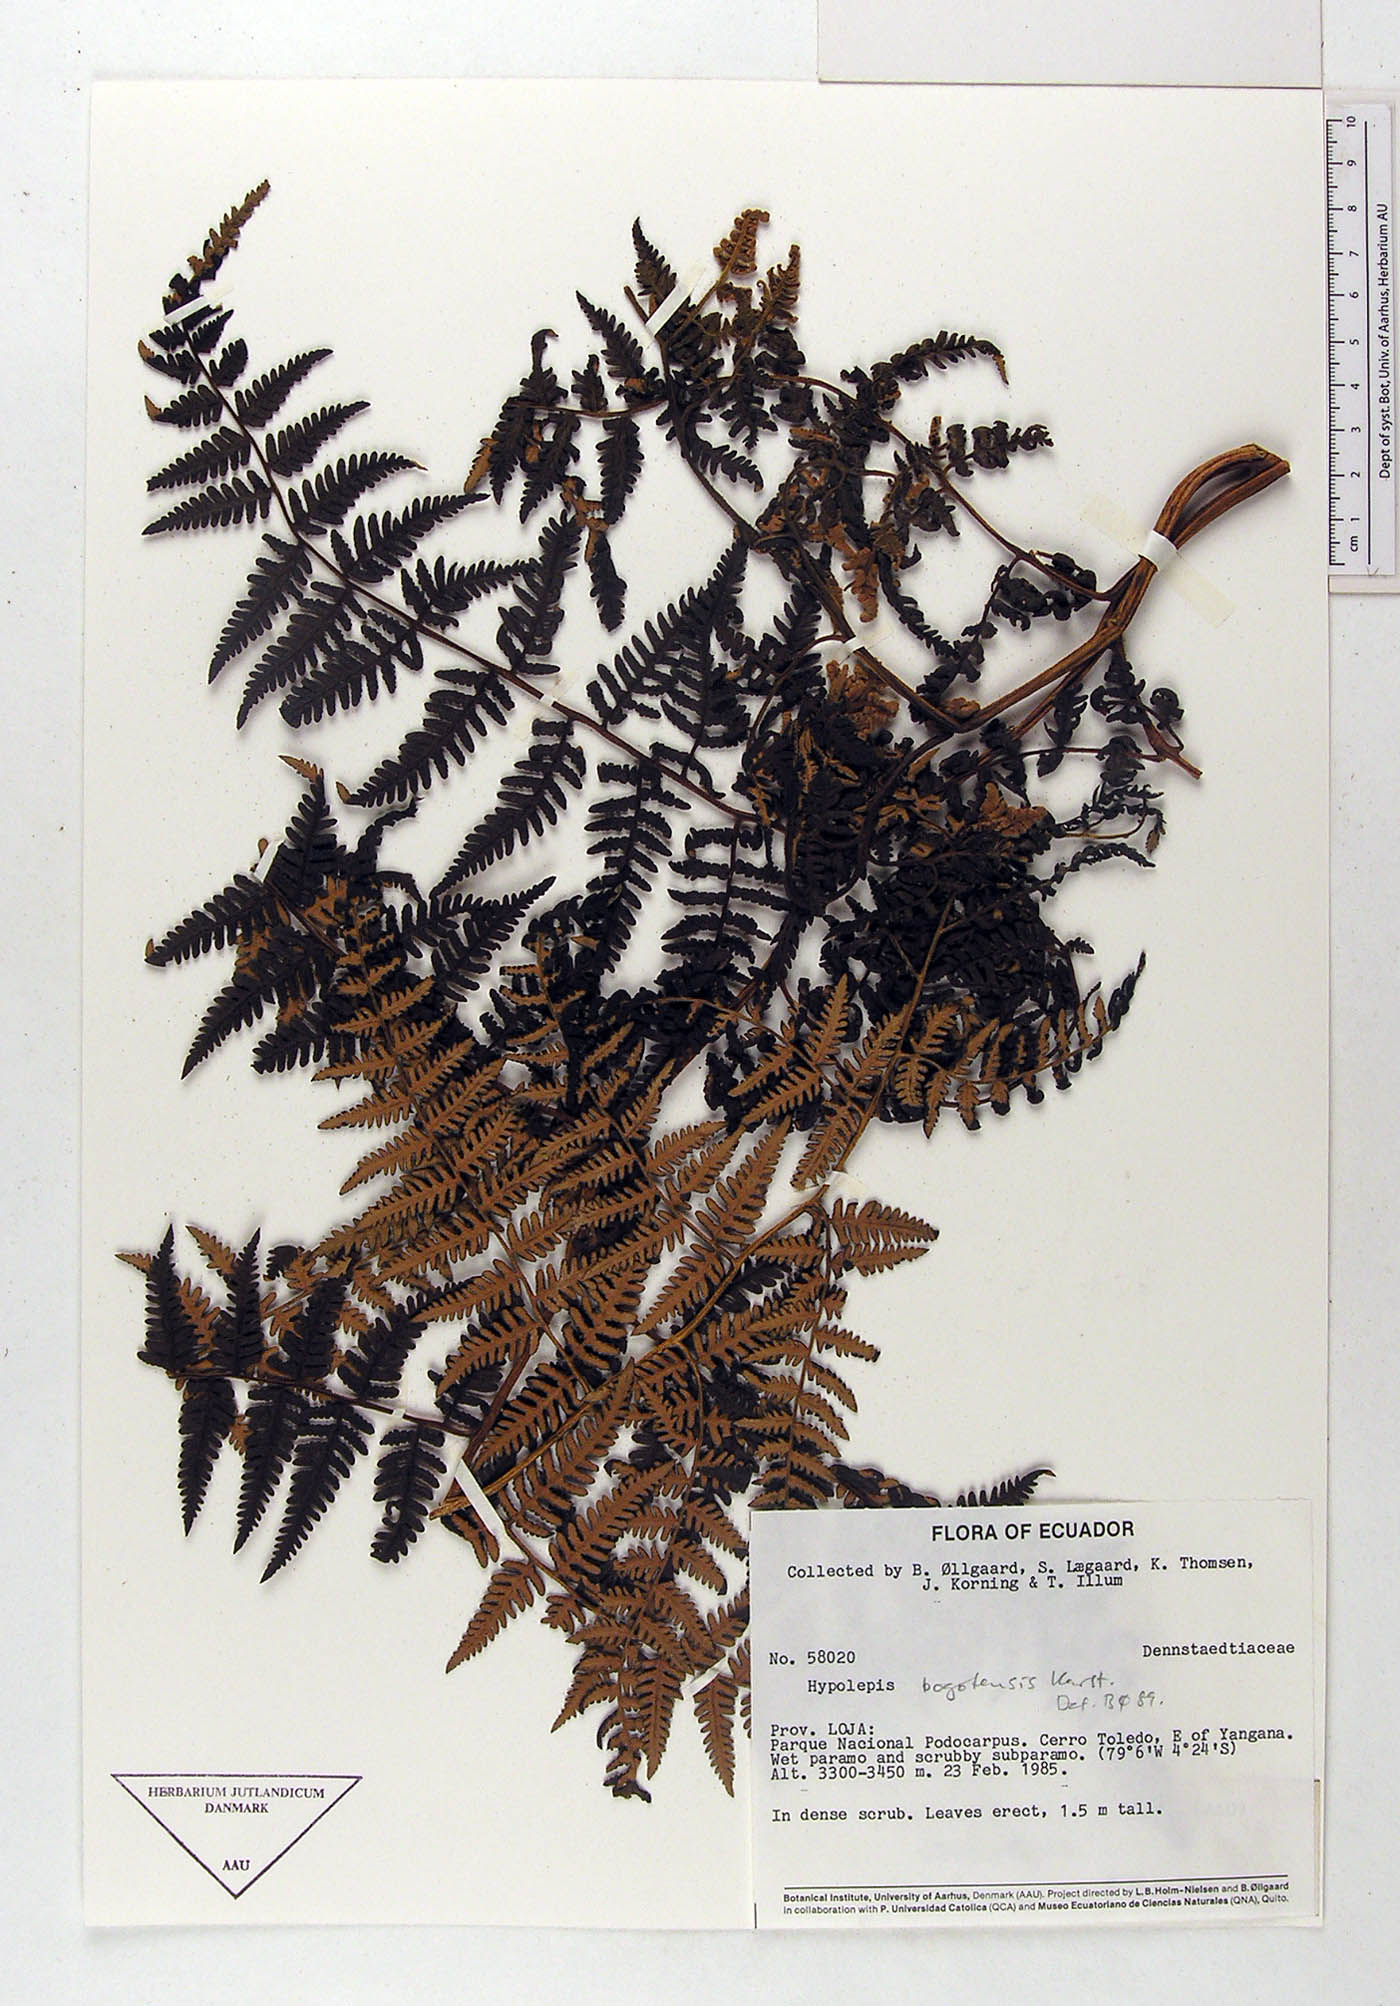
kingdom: Plantae
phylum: Tracheophyta
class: Polypodiopsida
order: Polypodiales
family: Dennstaedtiaceae
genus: Hypolepis
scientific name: Hypolepis bogotensis
